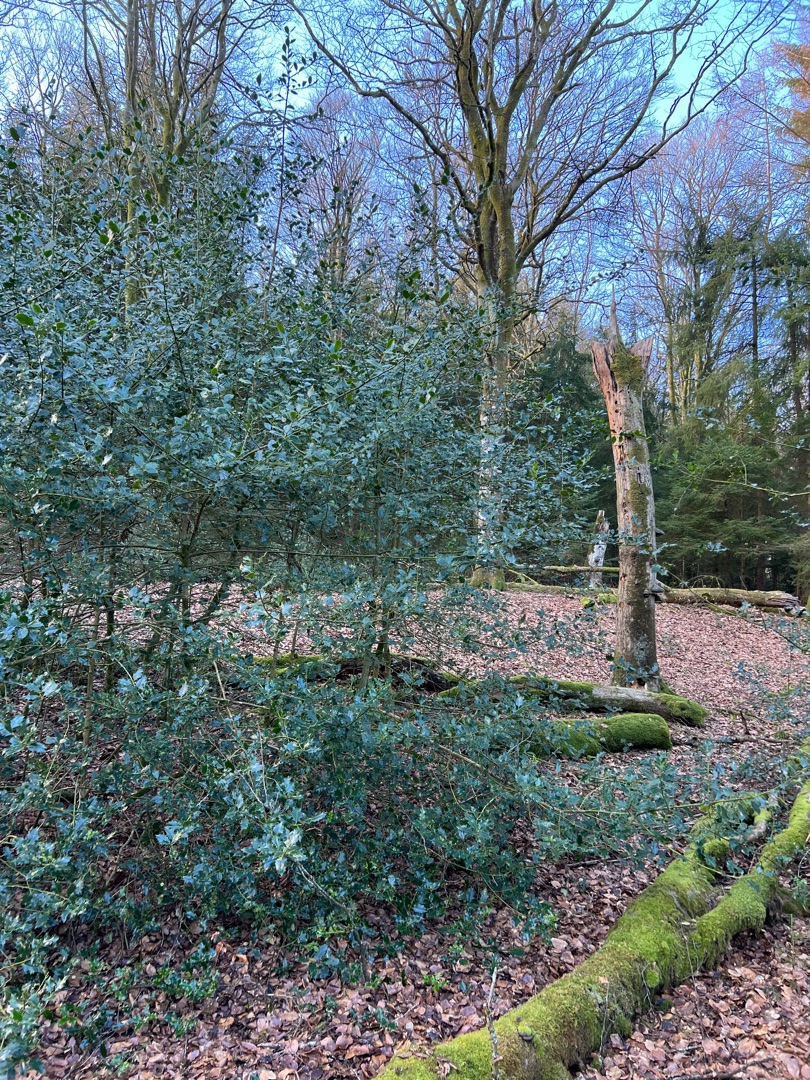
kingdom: Plantae
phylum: Tracheophyta
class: Magnoliopsida
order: Aquifoliales
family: Aquifoliaceae
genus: Ilex
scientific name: Ilex aquifolium
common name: Kristtorn
